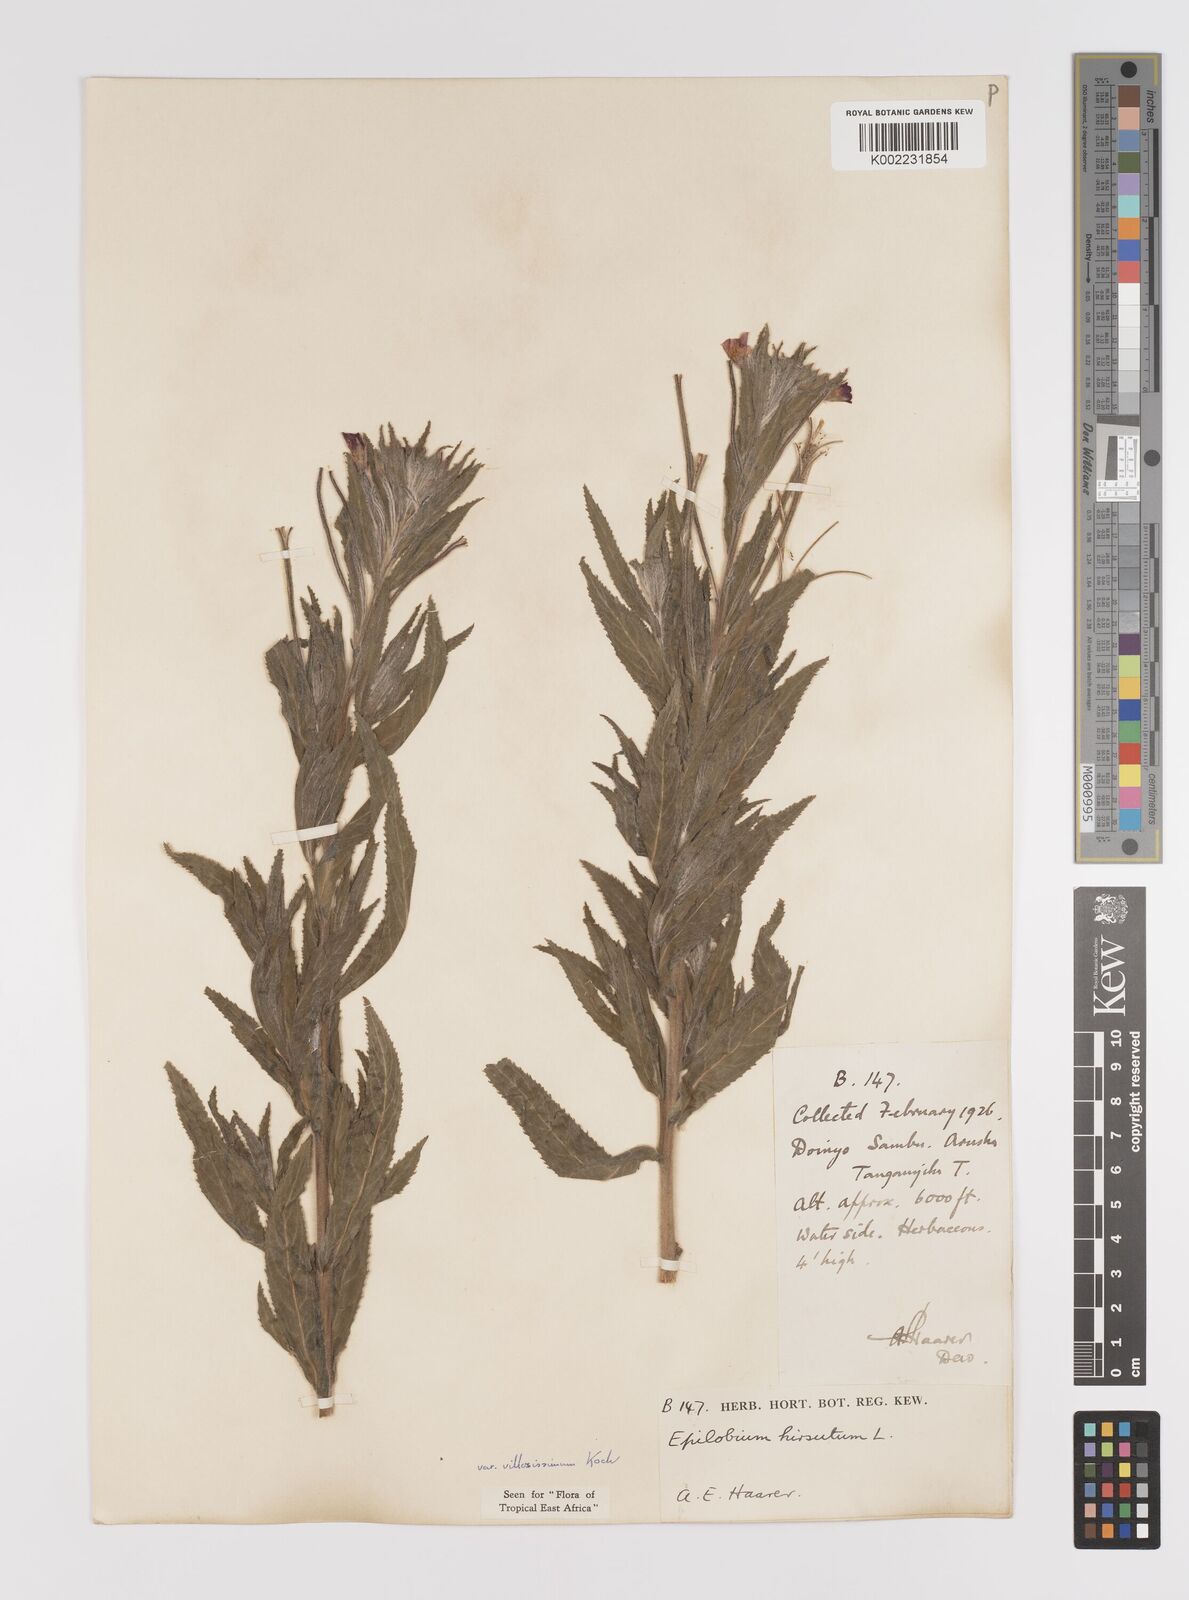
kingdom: Plantae
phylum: Tracheophyta
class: Magnoliopsida
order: Myrtales
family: Onagraceae
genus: Epilobium
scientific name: Epilobium hirsutum
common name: Great willowherb
